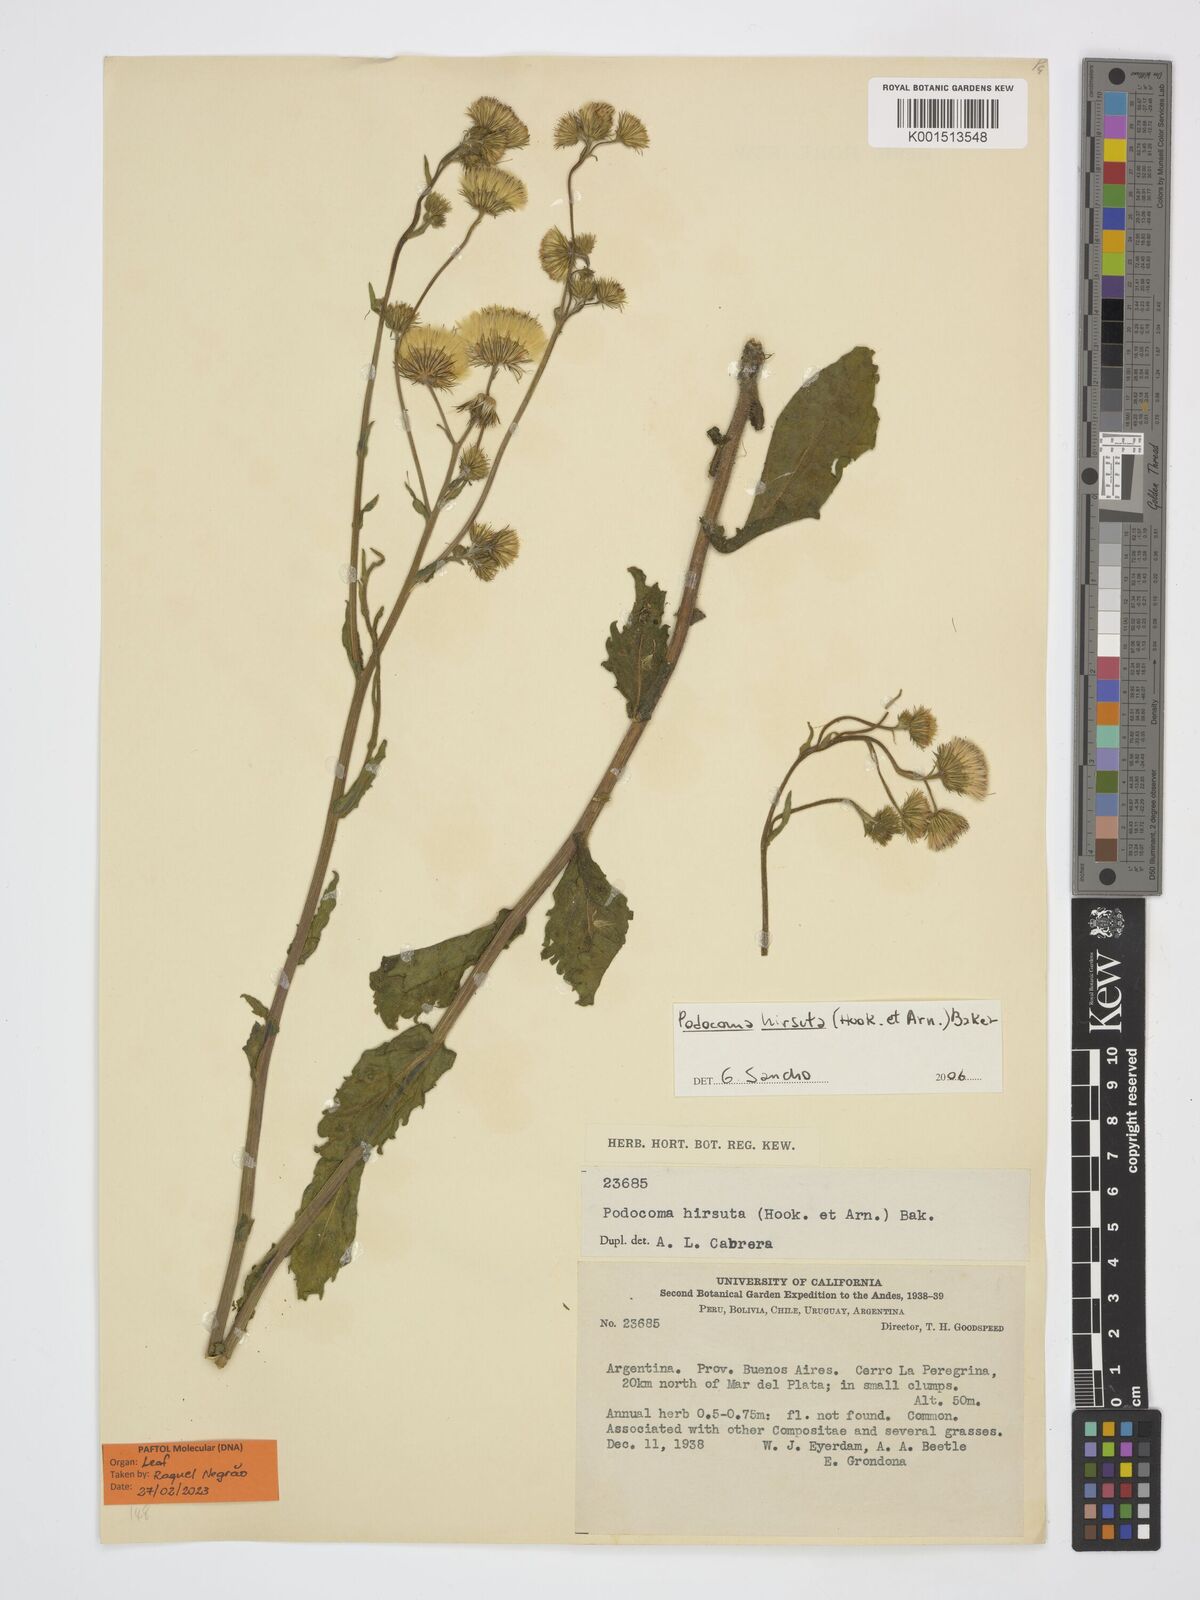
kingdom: Plantae
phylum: Tracheophyta
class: Magnoliopsida
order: Asterales
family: Asteraceae
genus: Podocoma
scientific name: Podocoma hirsuta
